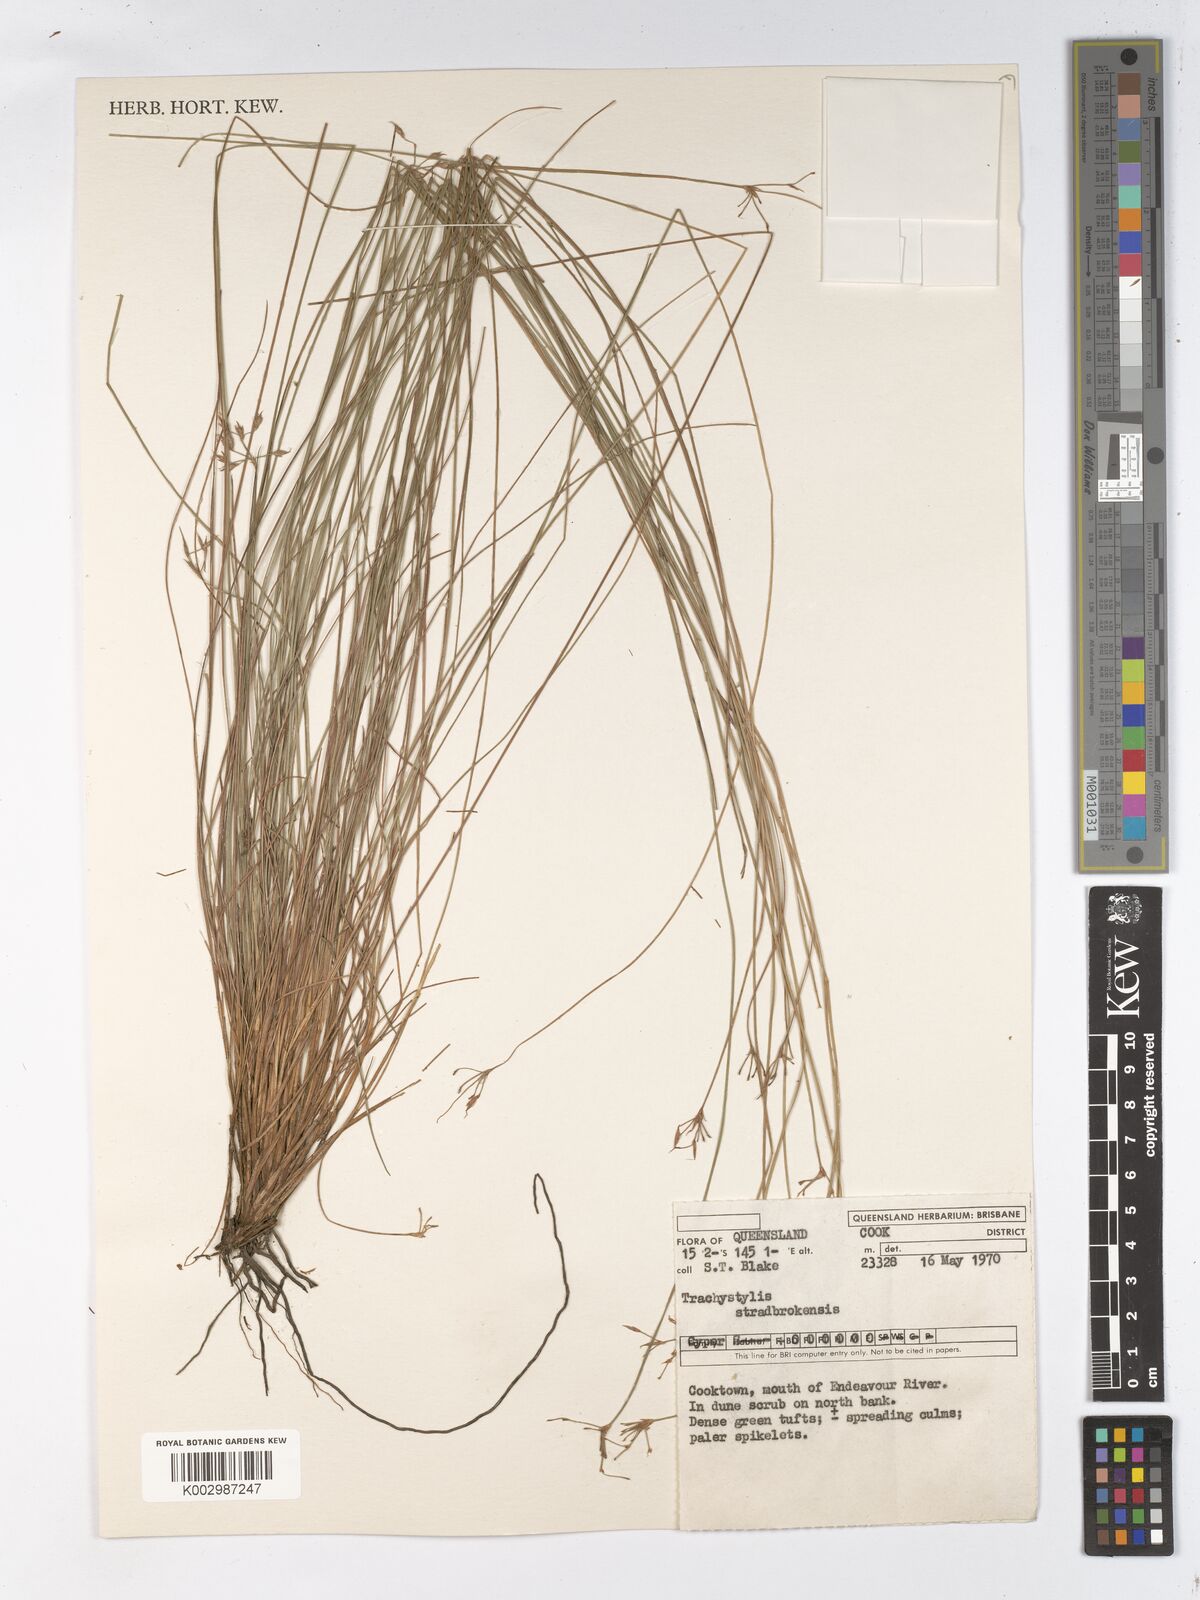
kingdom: Plantae
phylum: Tracheophyta
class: Liliopsida
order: Poales
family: Cyperaceae
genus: Trachystylis
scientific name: Trachystylis stradbrokensis
